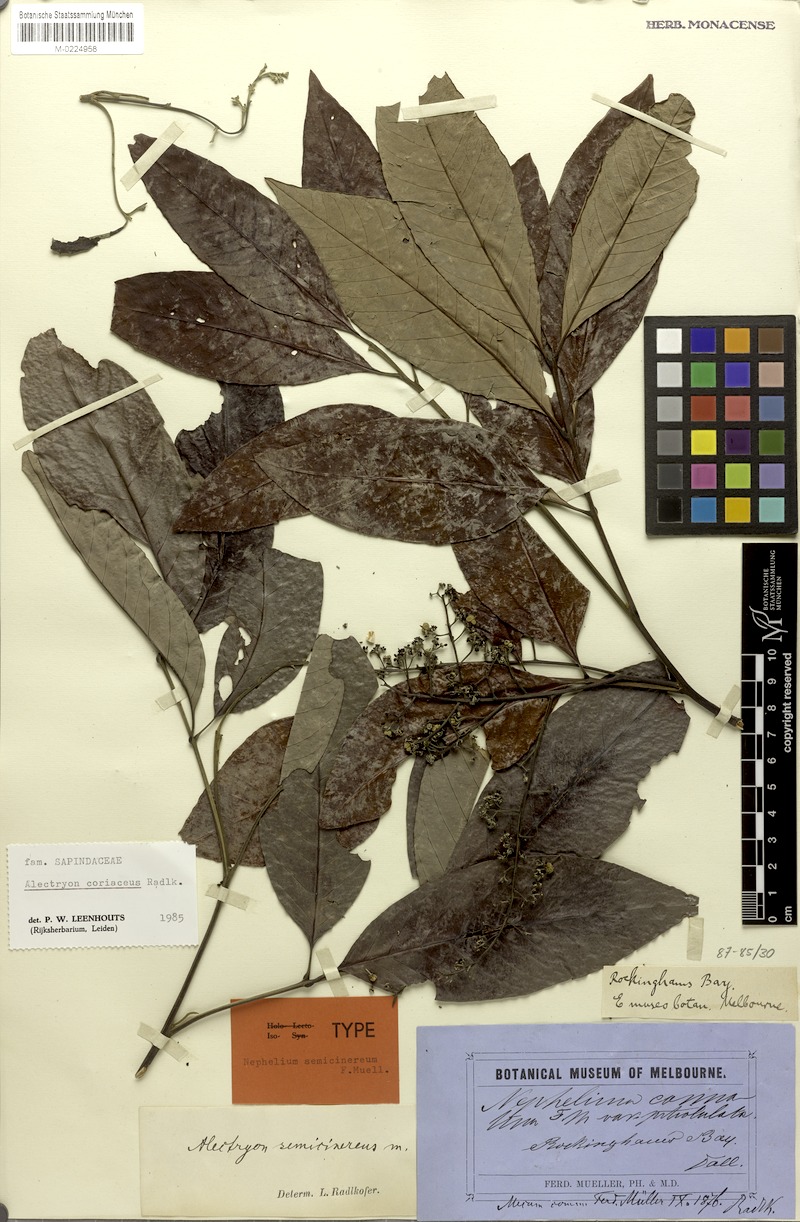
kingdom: Plantae
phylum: Tracheophyta
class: Magnoliopsida
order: Sapindales
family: Sapindaceae
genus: Alectryon
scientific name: Alectryon coriaceus
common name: Beach alectryon
